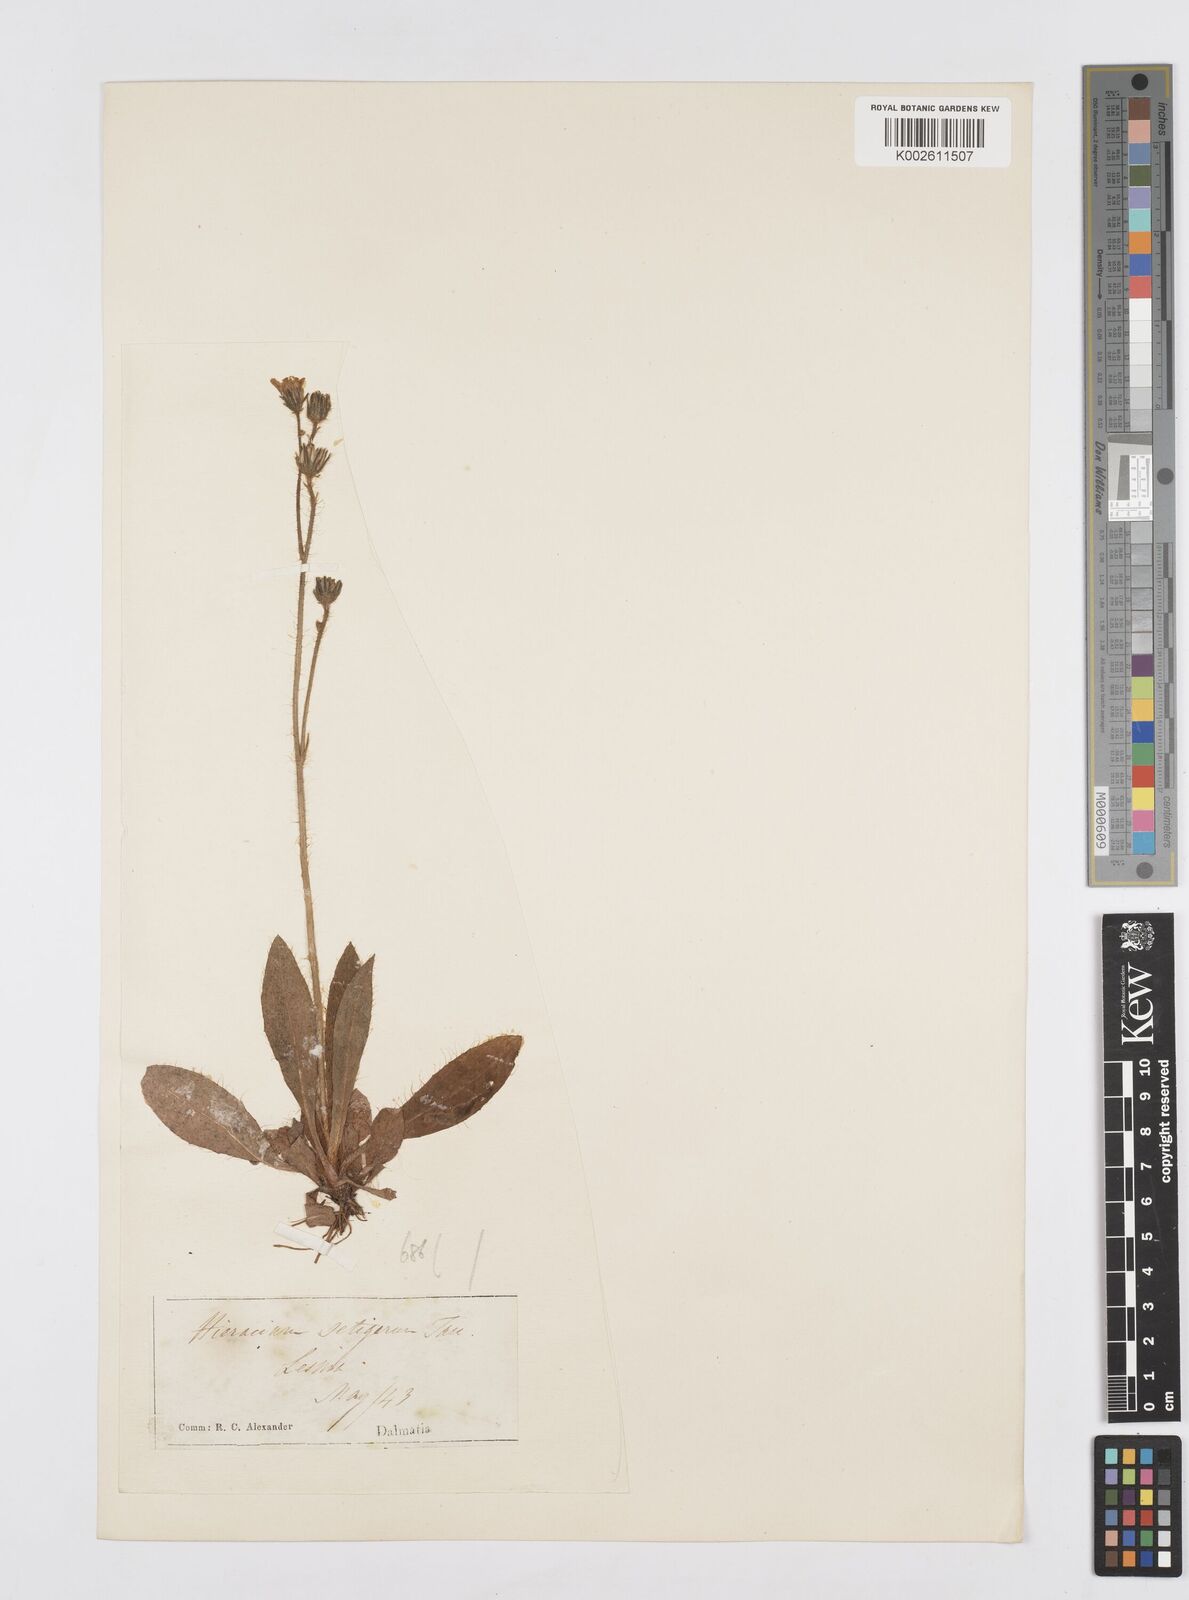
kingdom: Plantae
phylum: Tracheophyta
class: Magnoliopsida
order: Asterales
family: Asteraceae
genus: Pilosella
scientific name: Pilosella acutifolia
